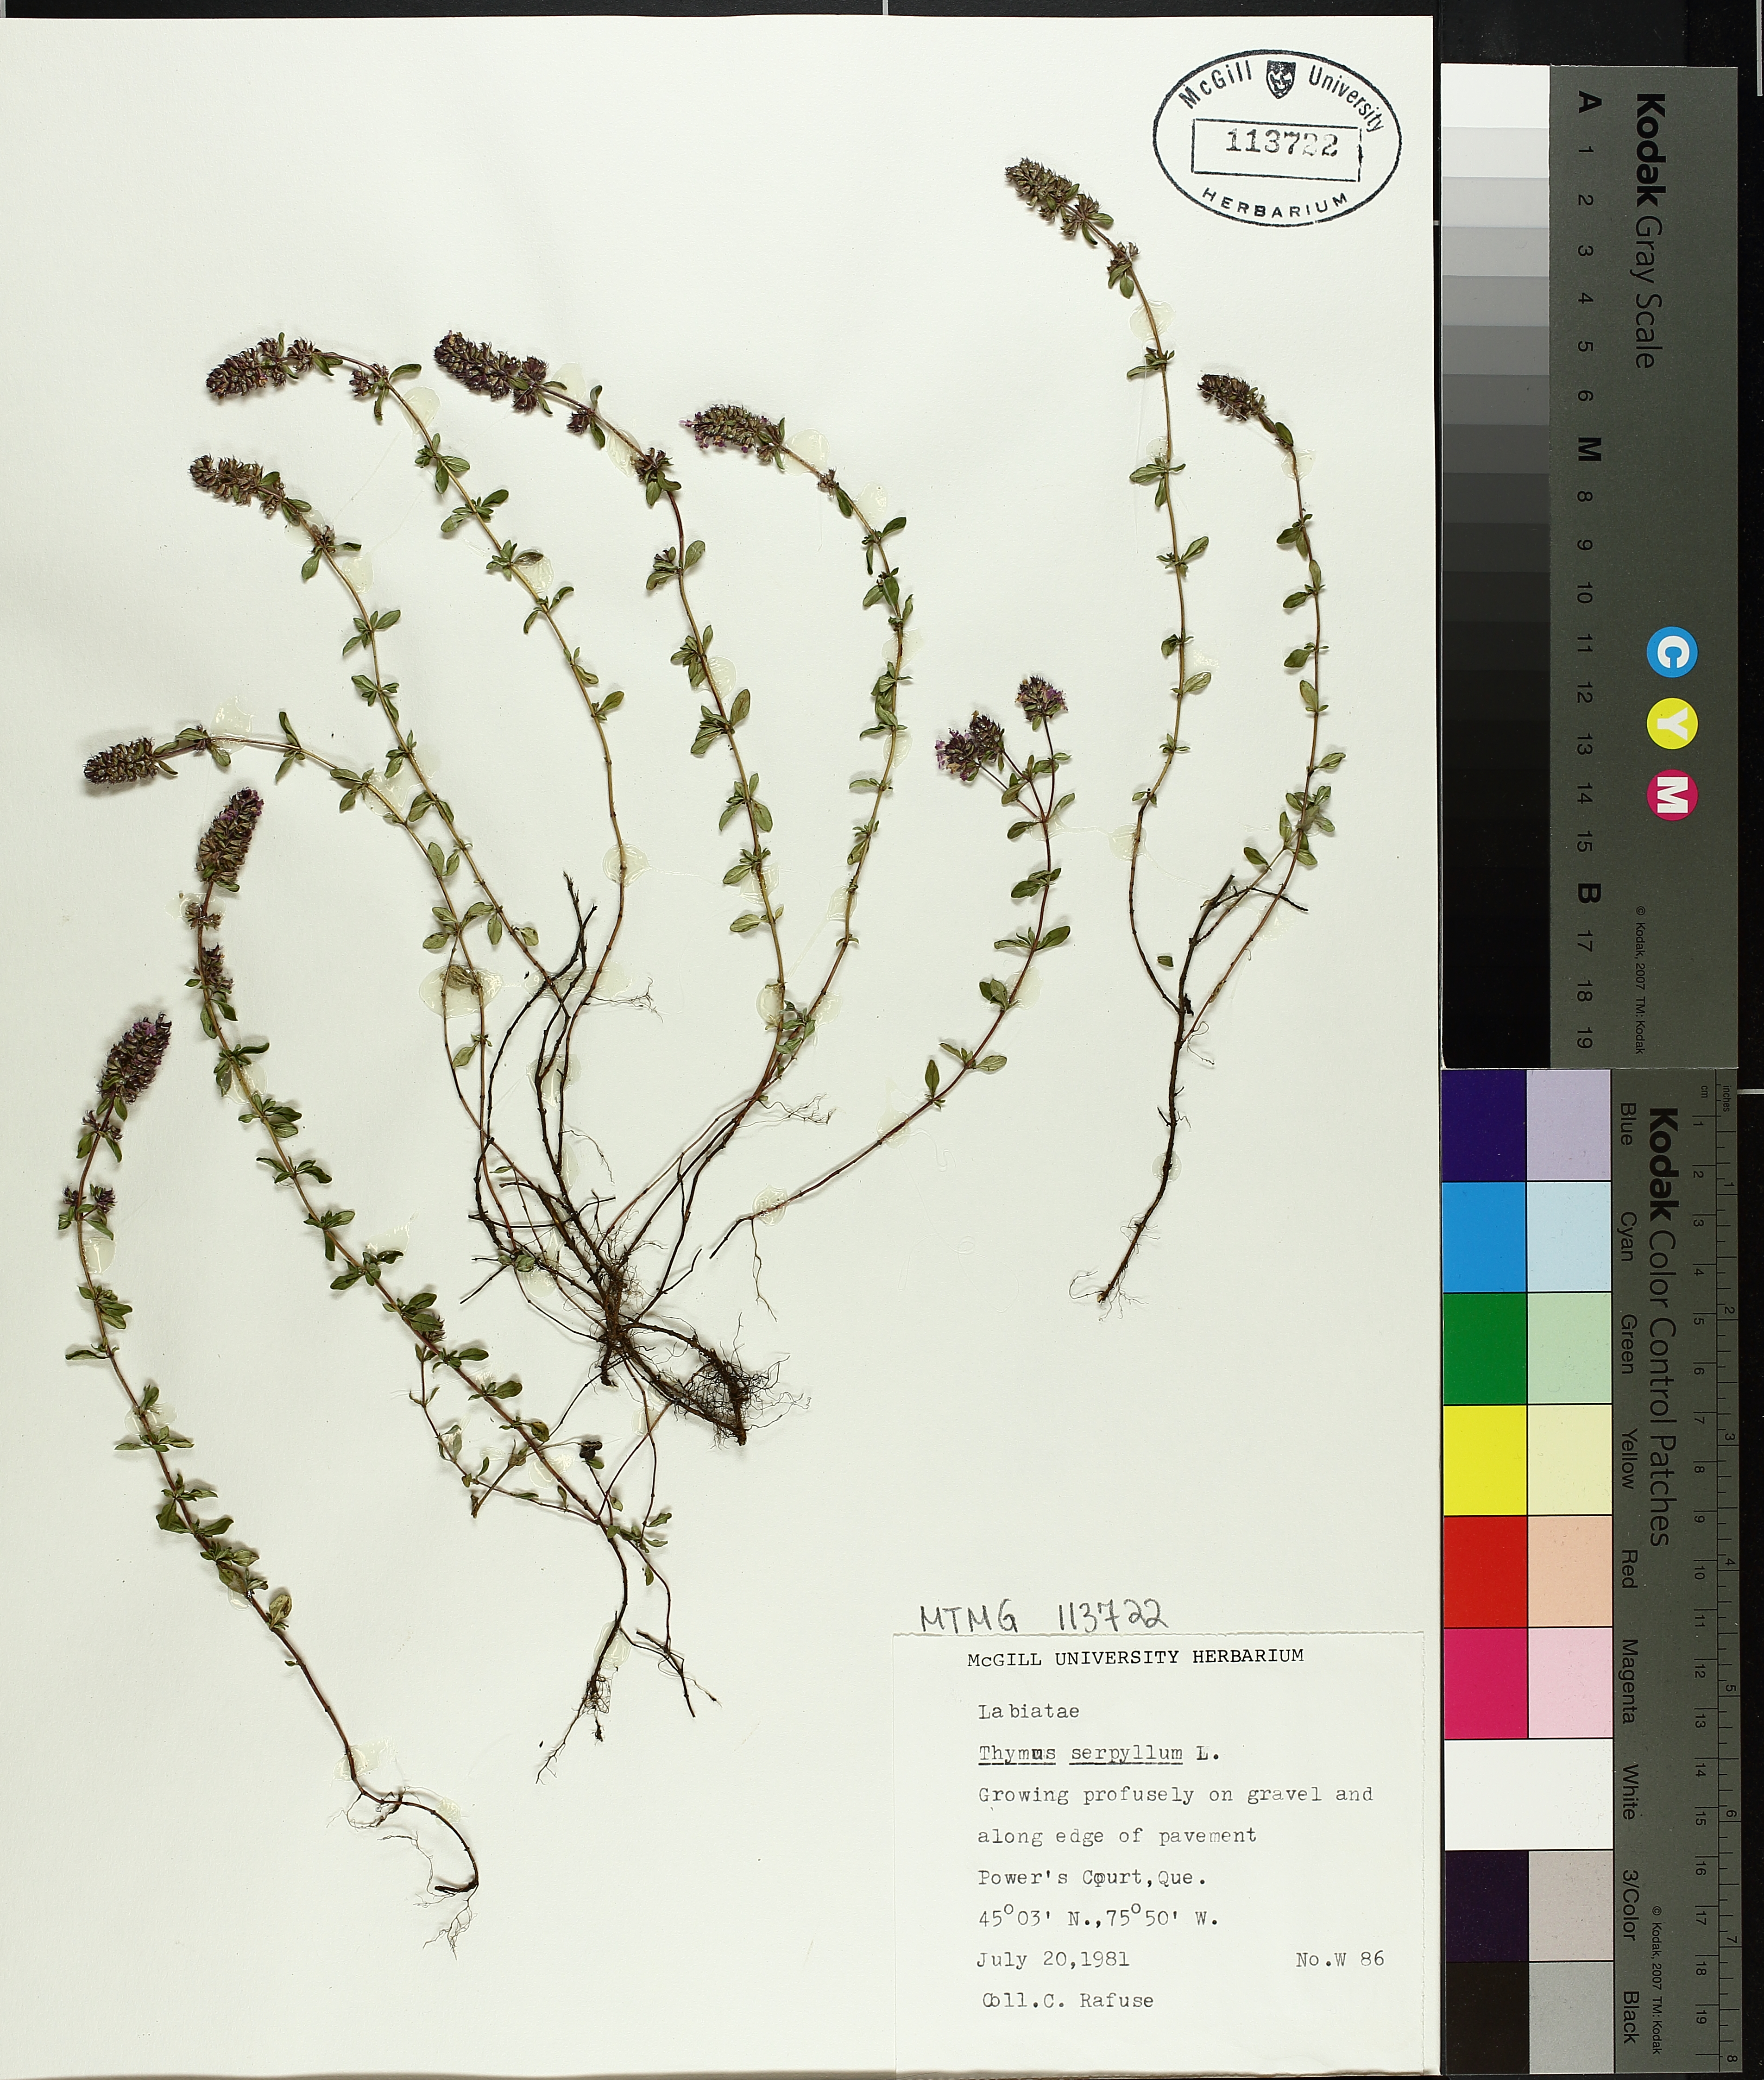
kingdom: Plantae
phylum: Tracheophyta
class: Magnoliopsida
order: Lamiales
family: Lamiaceae
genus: Thymus
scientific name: Thymus serpyllum
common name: Breckland thyme
